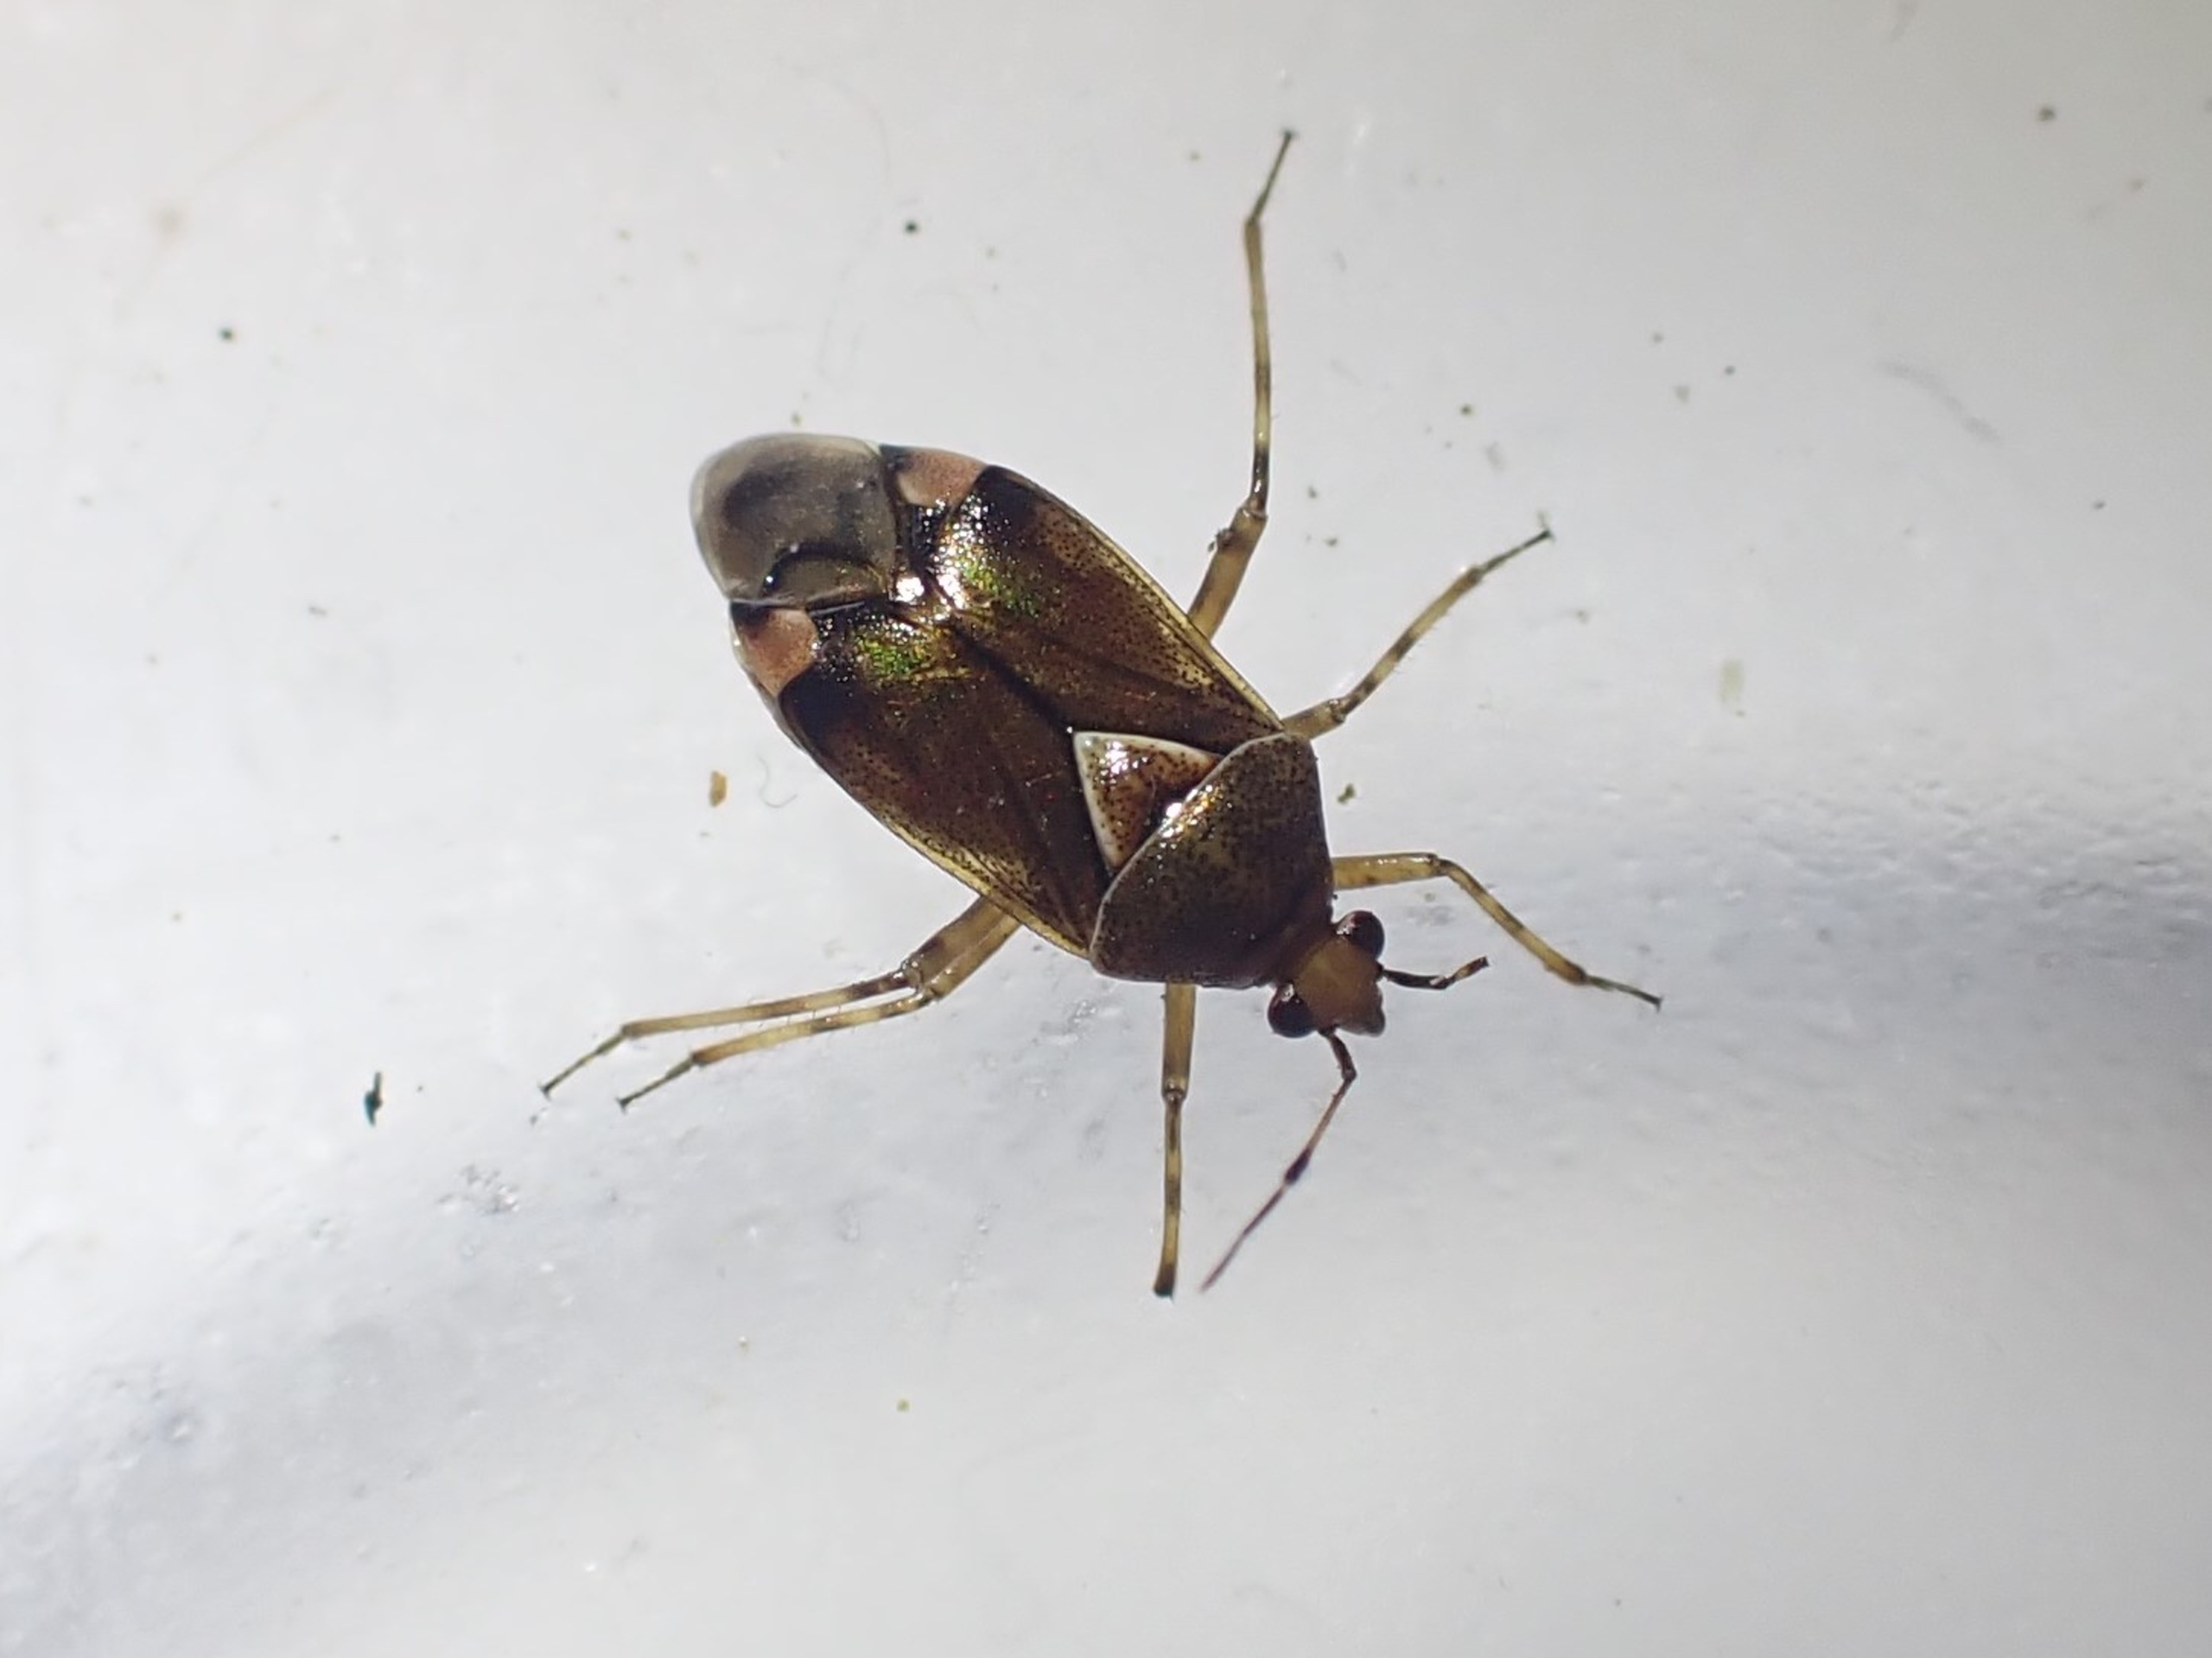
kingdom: Animalia
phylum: Arthropoda
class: Insecta
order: Hemiptera
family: Miridae
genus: Deraeocoris
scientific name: Deraeocoris flavilinea
